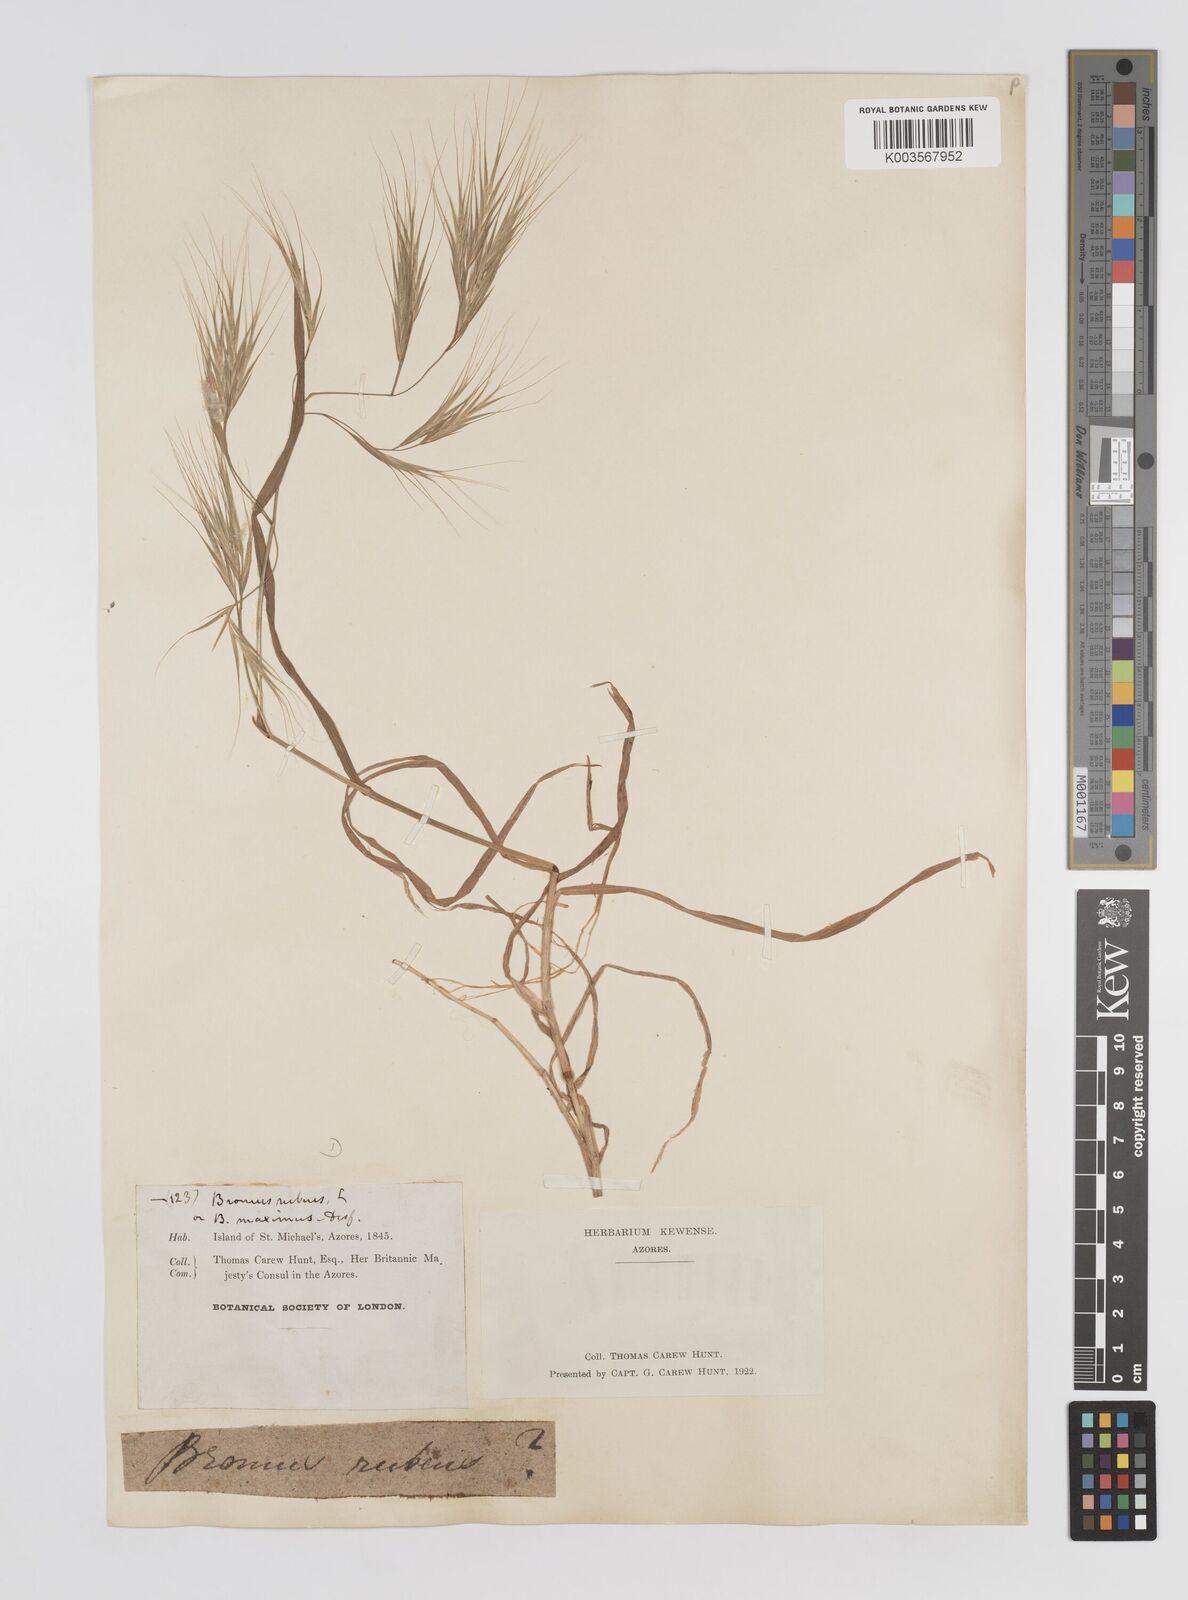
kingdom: Plantae
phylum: Tracheophyta
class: Liliopsida
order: Poales
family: Poaceae
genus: Bromus
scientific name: Bromus diandrus
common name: Ripgut brome
